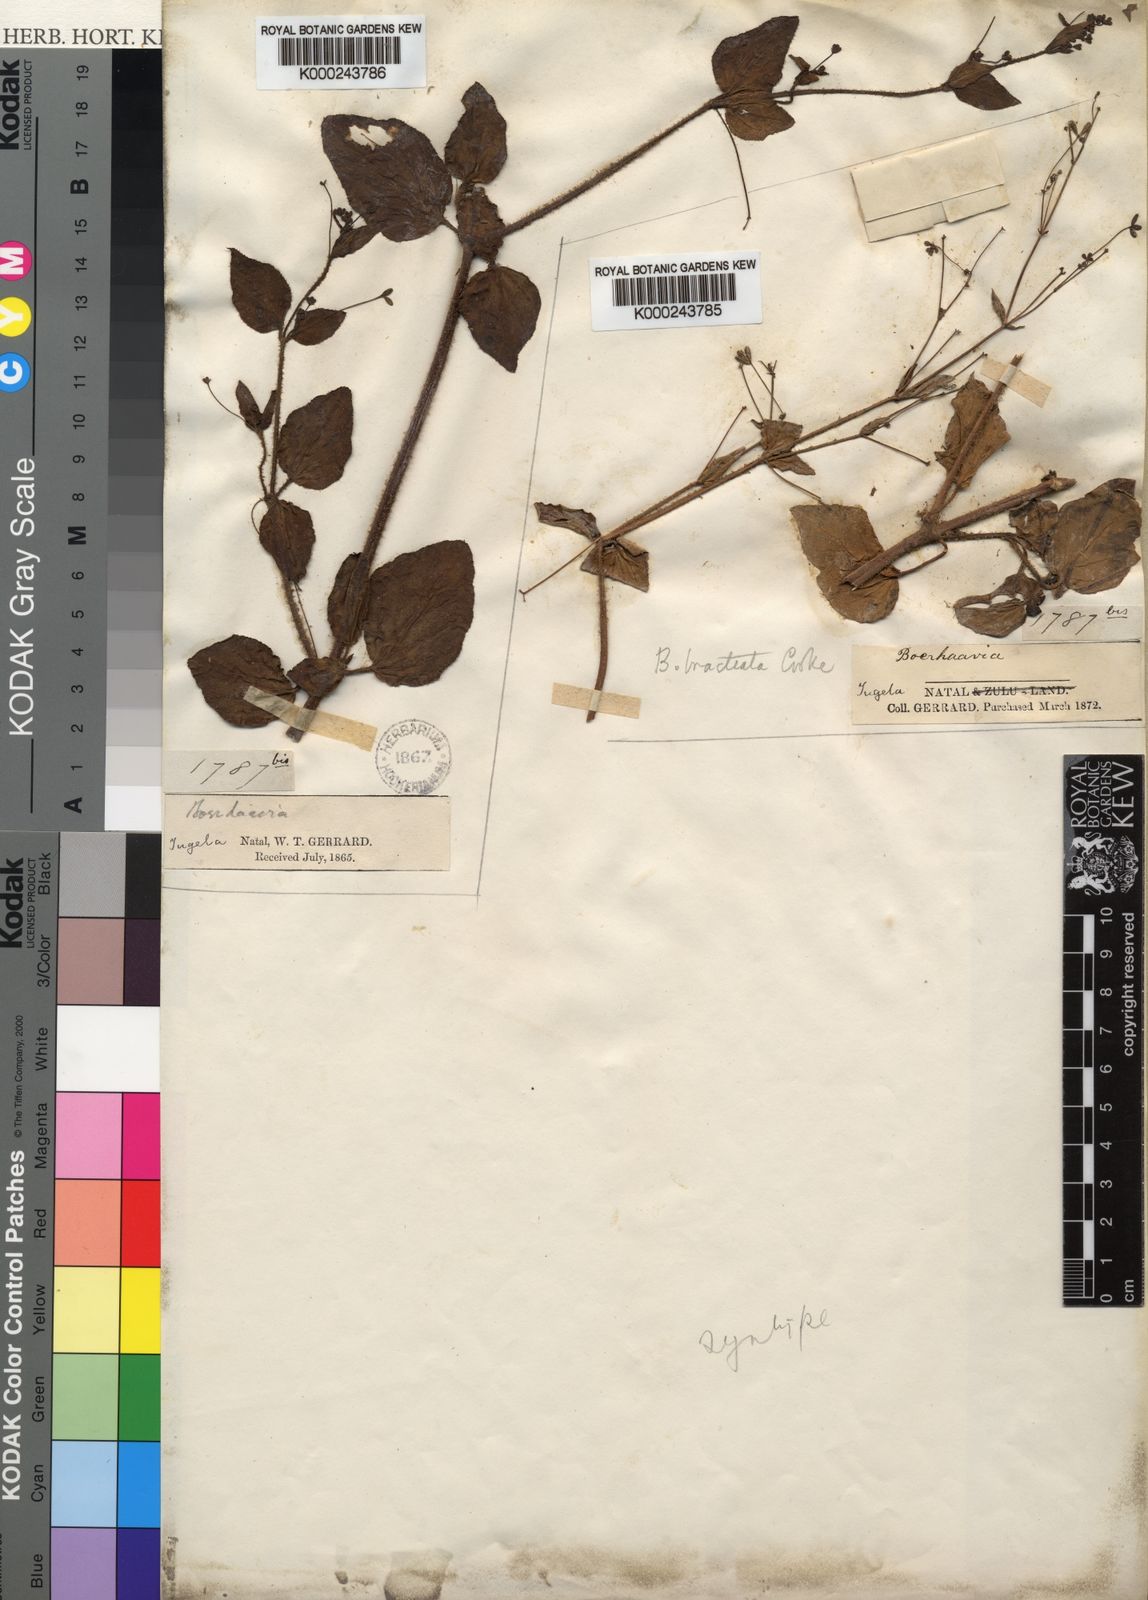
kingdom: Plantae
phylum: Tracheophyta
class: Magnoliopsida
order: Caryophyllales
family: Nyctaginaceae
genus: Boerhavia
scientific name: Boerhavia coccinea
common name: Scarlet spiderling
